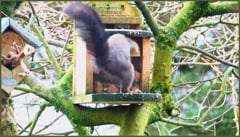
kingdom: Animalia
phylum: Chordata
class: Mammalia
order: Rodentia
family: Sciuridae
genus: Sciurus
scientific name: Sciurus vulgaris
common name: Eurasian red squirrel
